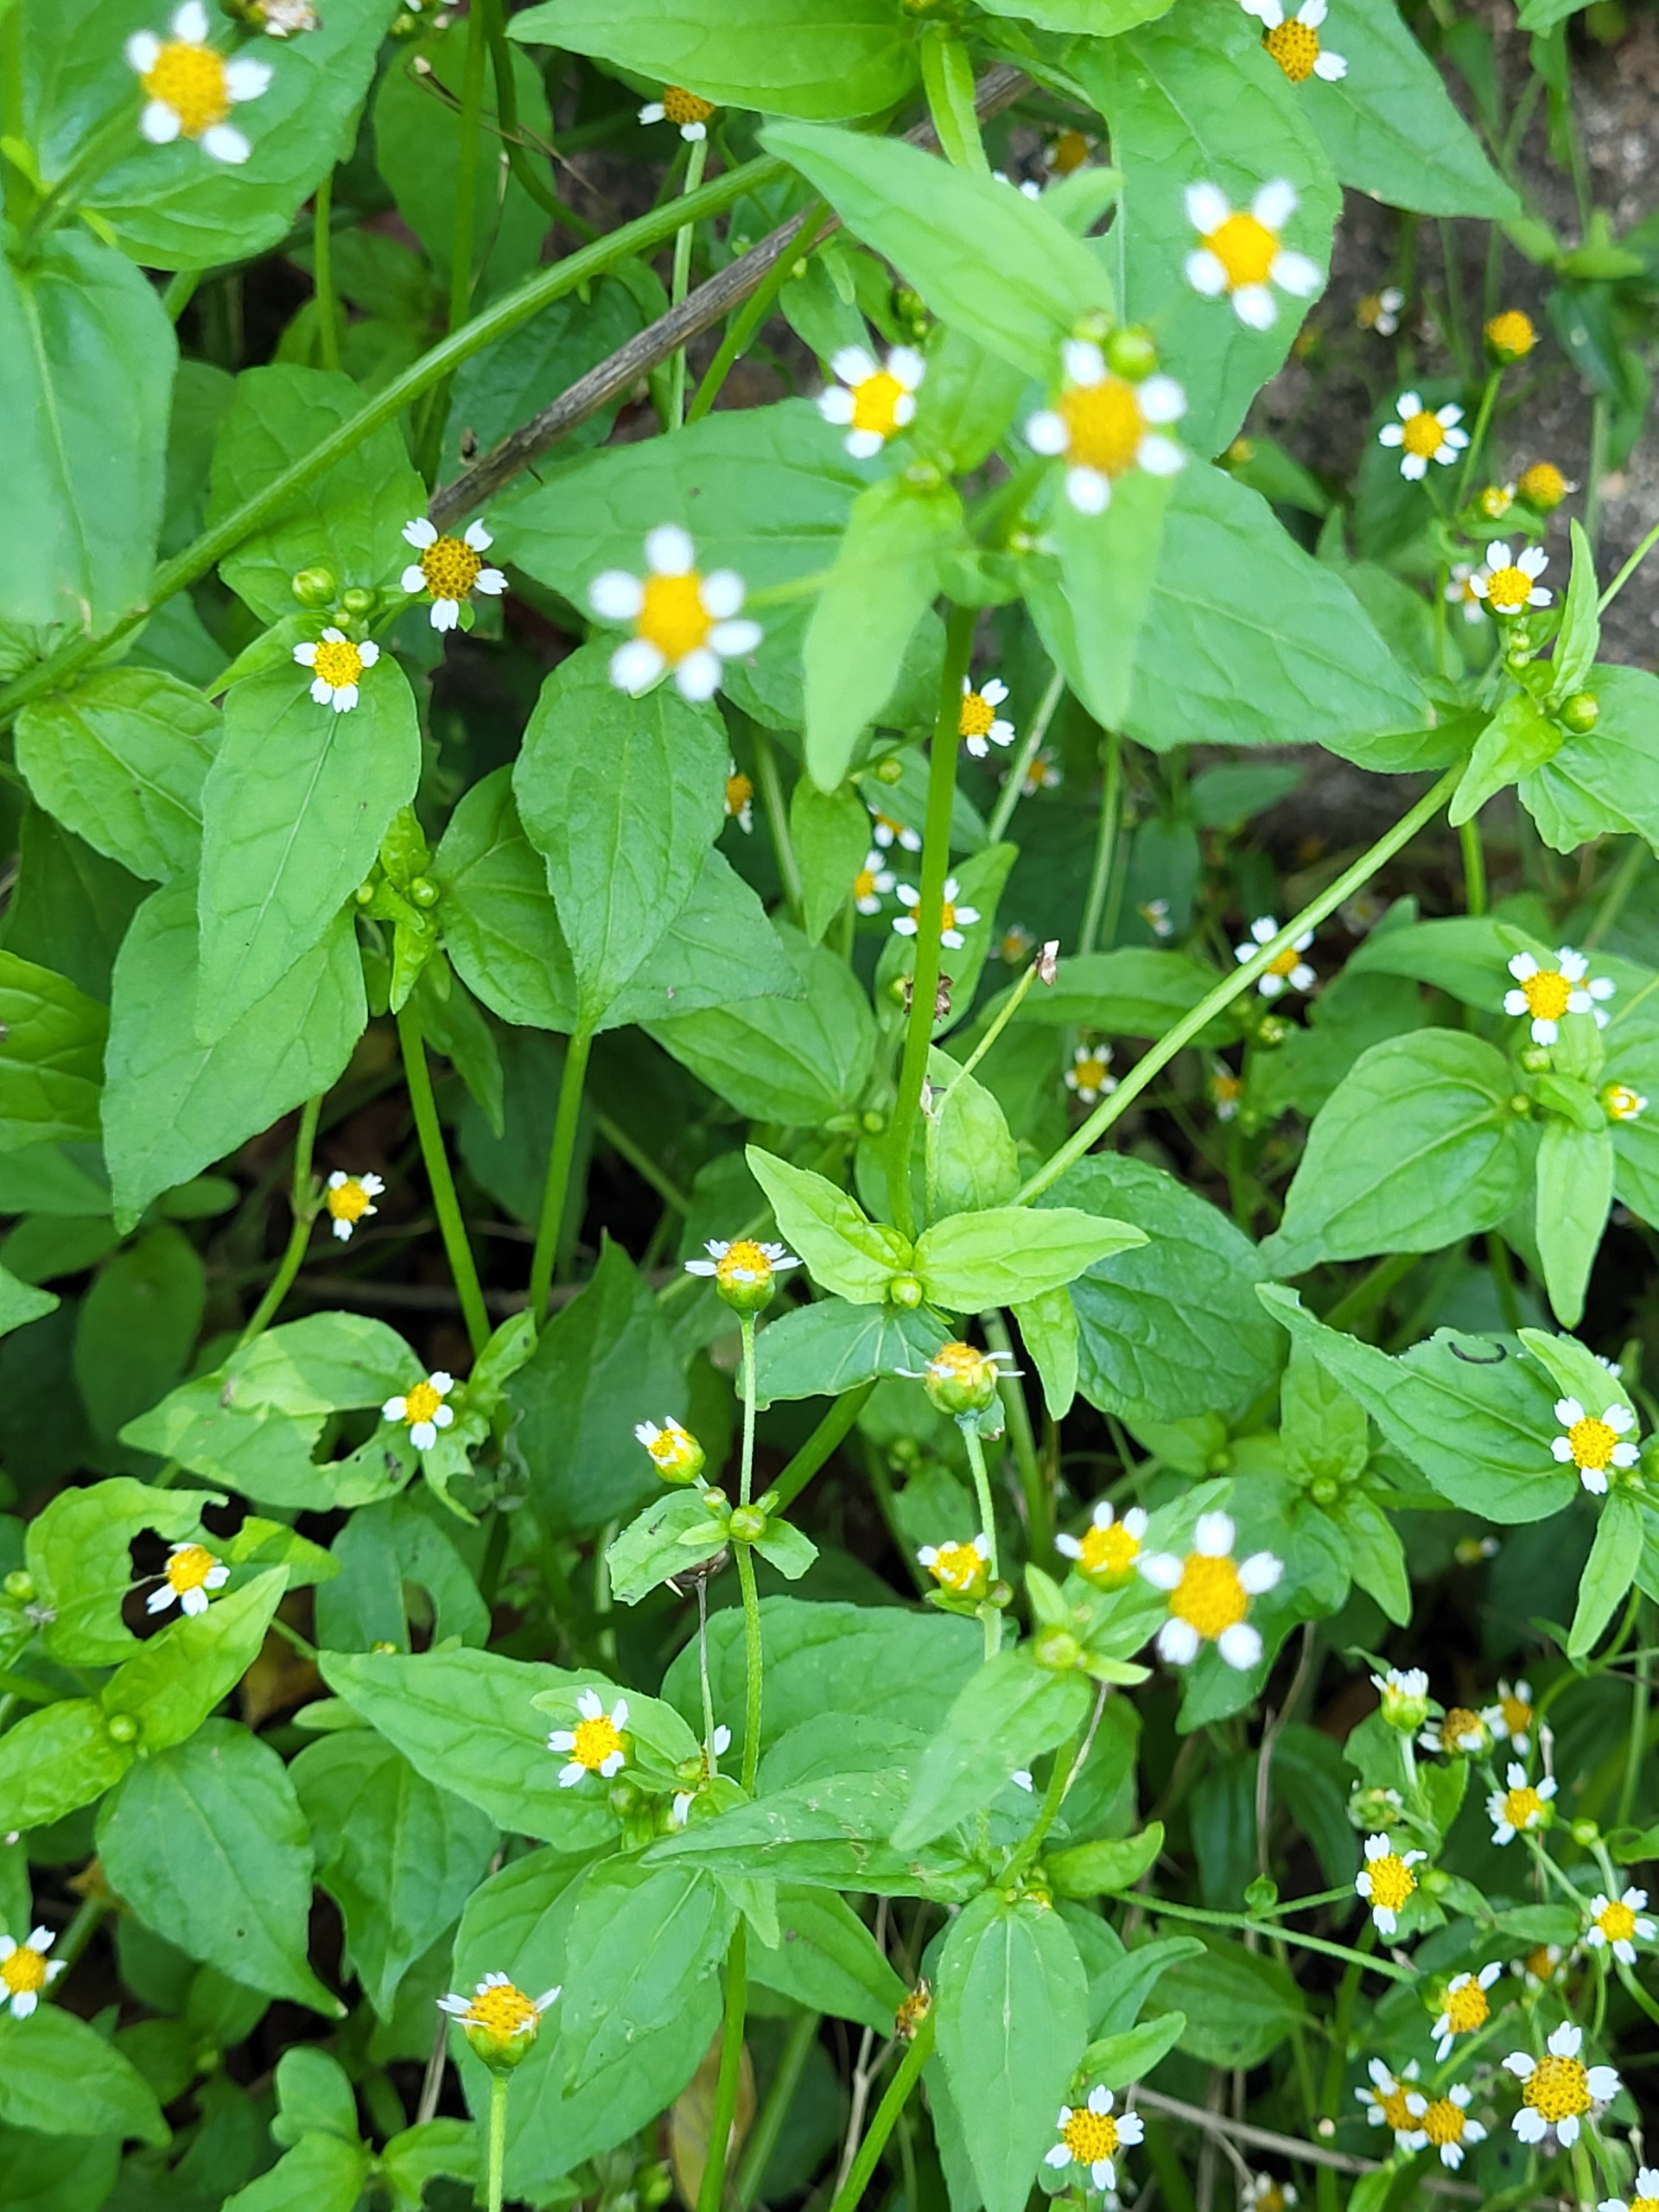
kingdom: Plantae
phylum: Tracheophyta
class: Magnoliopsida
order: Asterales
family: Asteraceae
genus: Galinsoga
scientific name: Galinsoga parviflora
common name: Håret kortstråle
